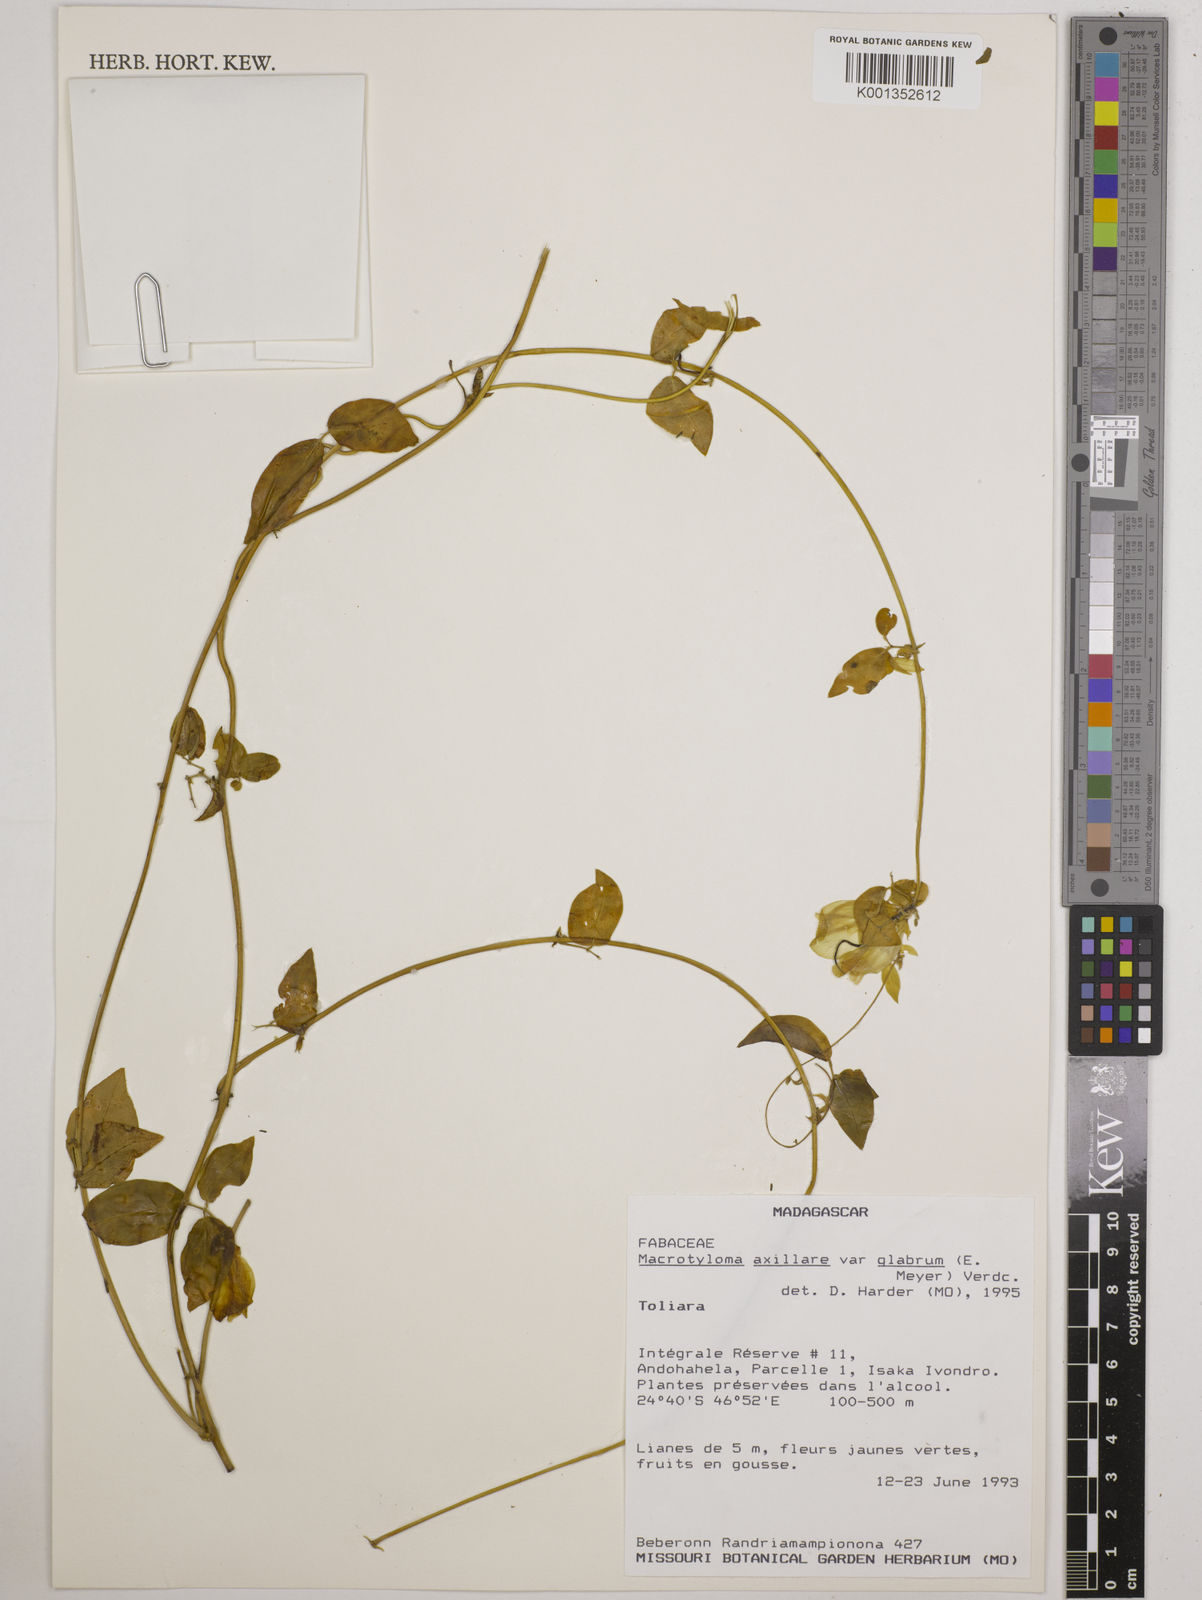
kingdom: Plantae
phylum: Tracheophyta
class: Magnoliopsida
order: Fabales
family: Fabaceae
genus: Macrotyloma
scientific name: Macrotyloma
